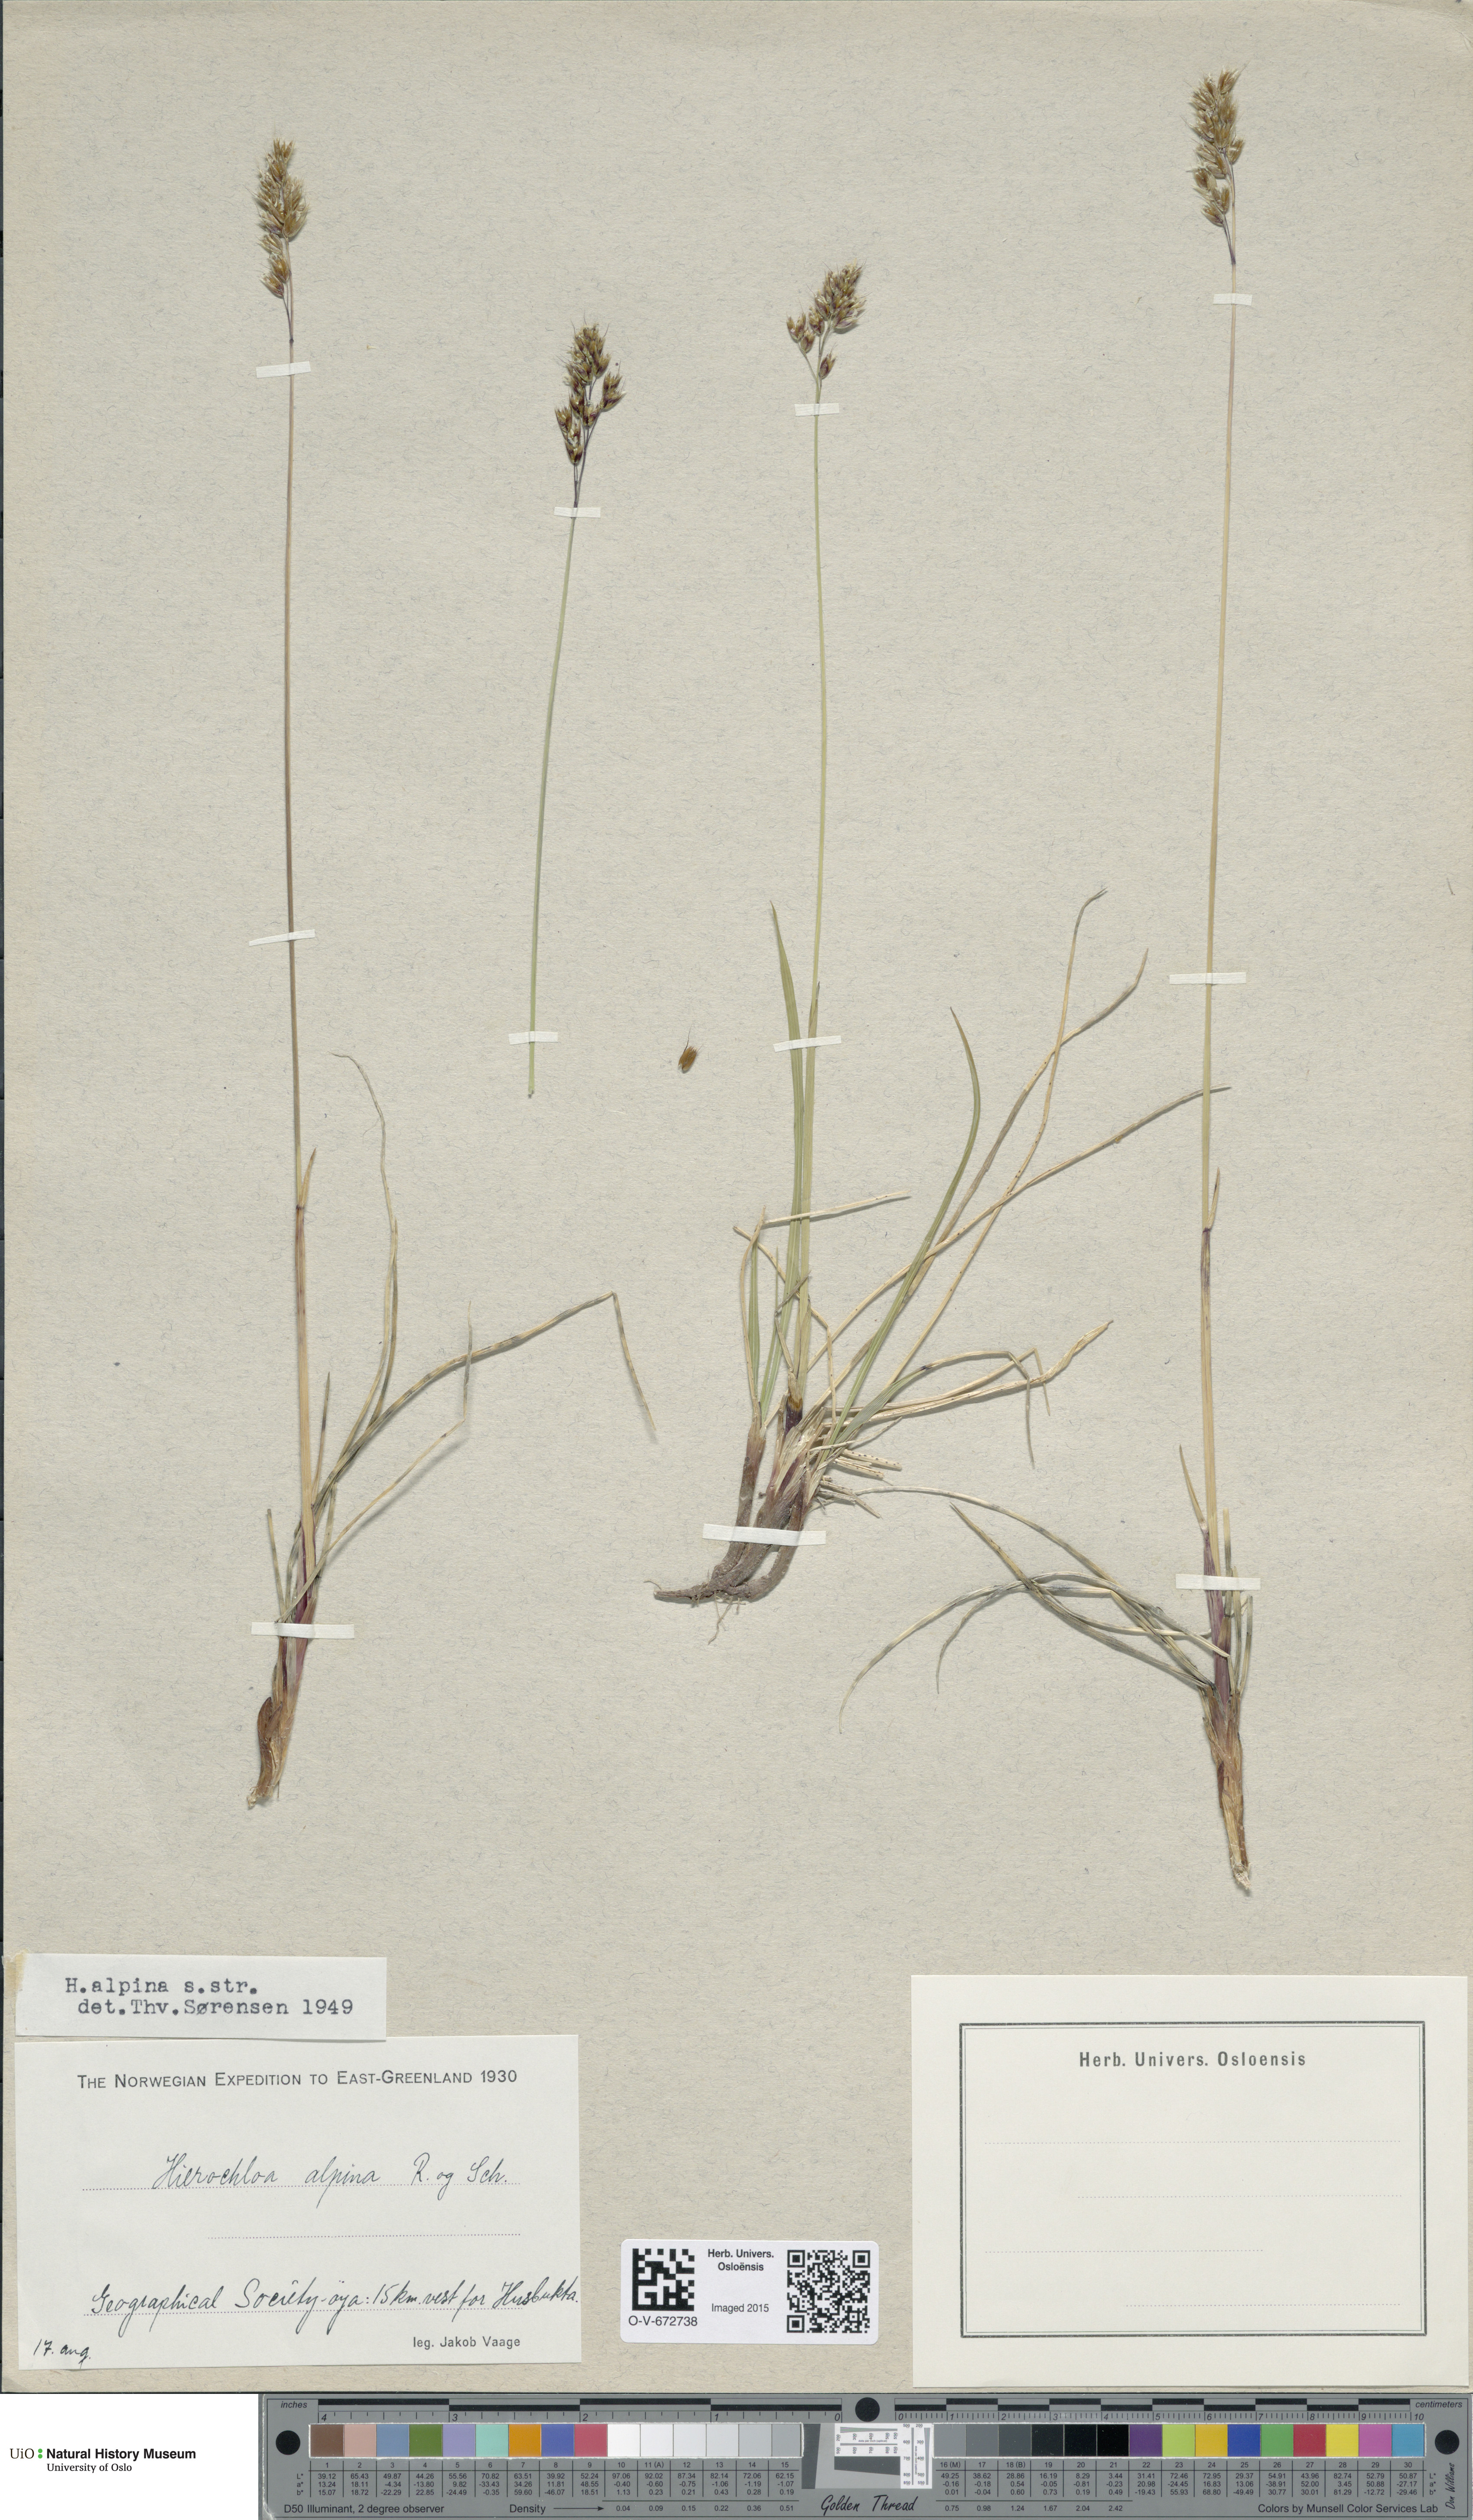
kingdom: Plantae
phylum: Tracheophyta
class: Liliopsida
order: Poales
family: Poaceae
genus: Anthoxanthum
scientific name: Anthoxanthum monticola
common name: Alpine sweetgrass
